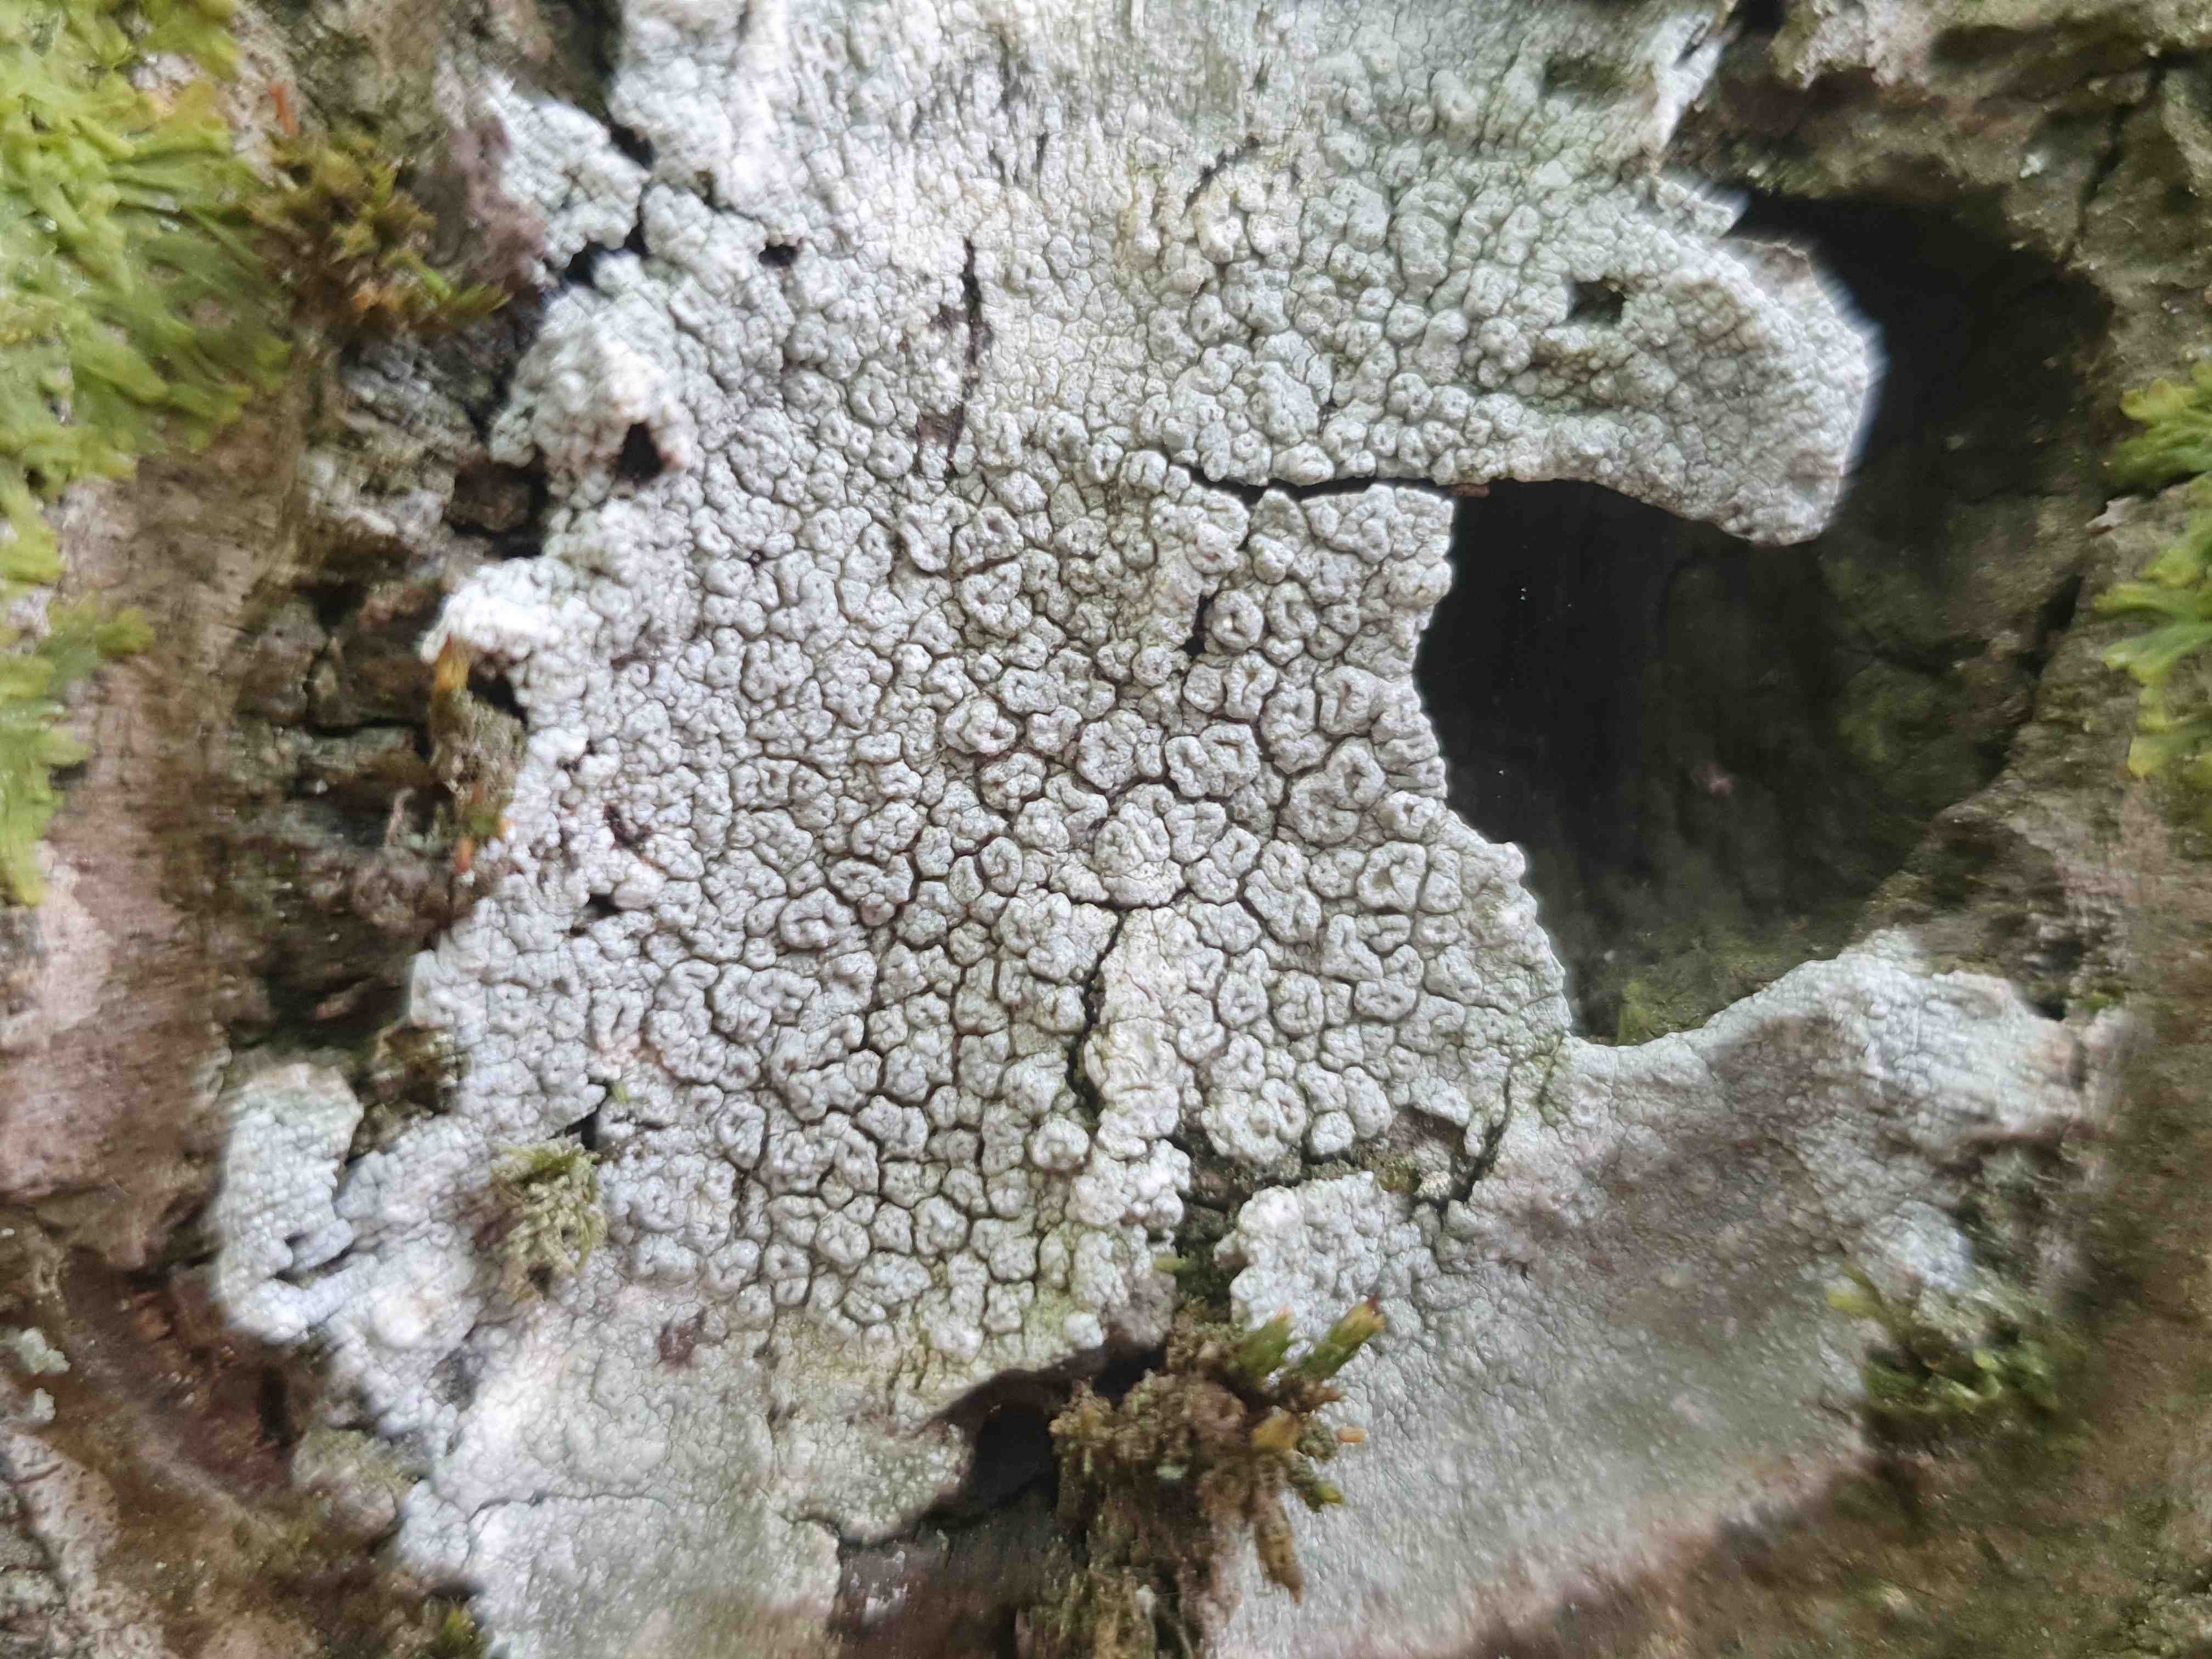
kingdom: Fungi
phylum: Ascomycota
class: Lecanoromycetes
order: Pertusariales
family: Pertusariaceae
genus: Pertusaria
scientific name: Pertusaria hymenea
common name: åben prikvortelav
